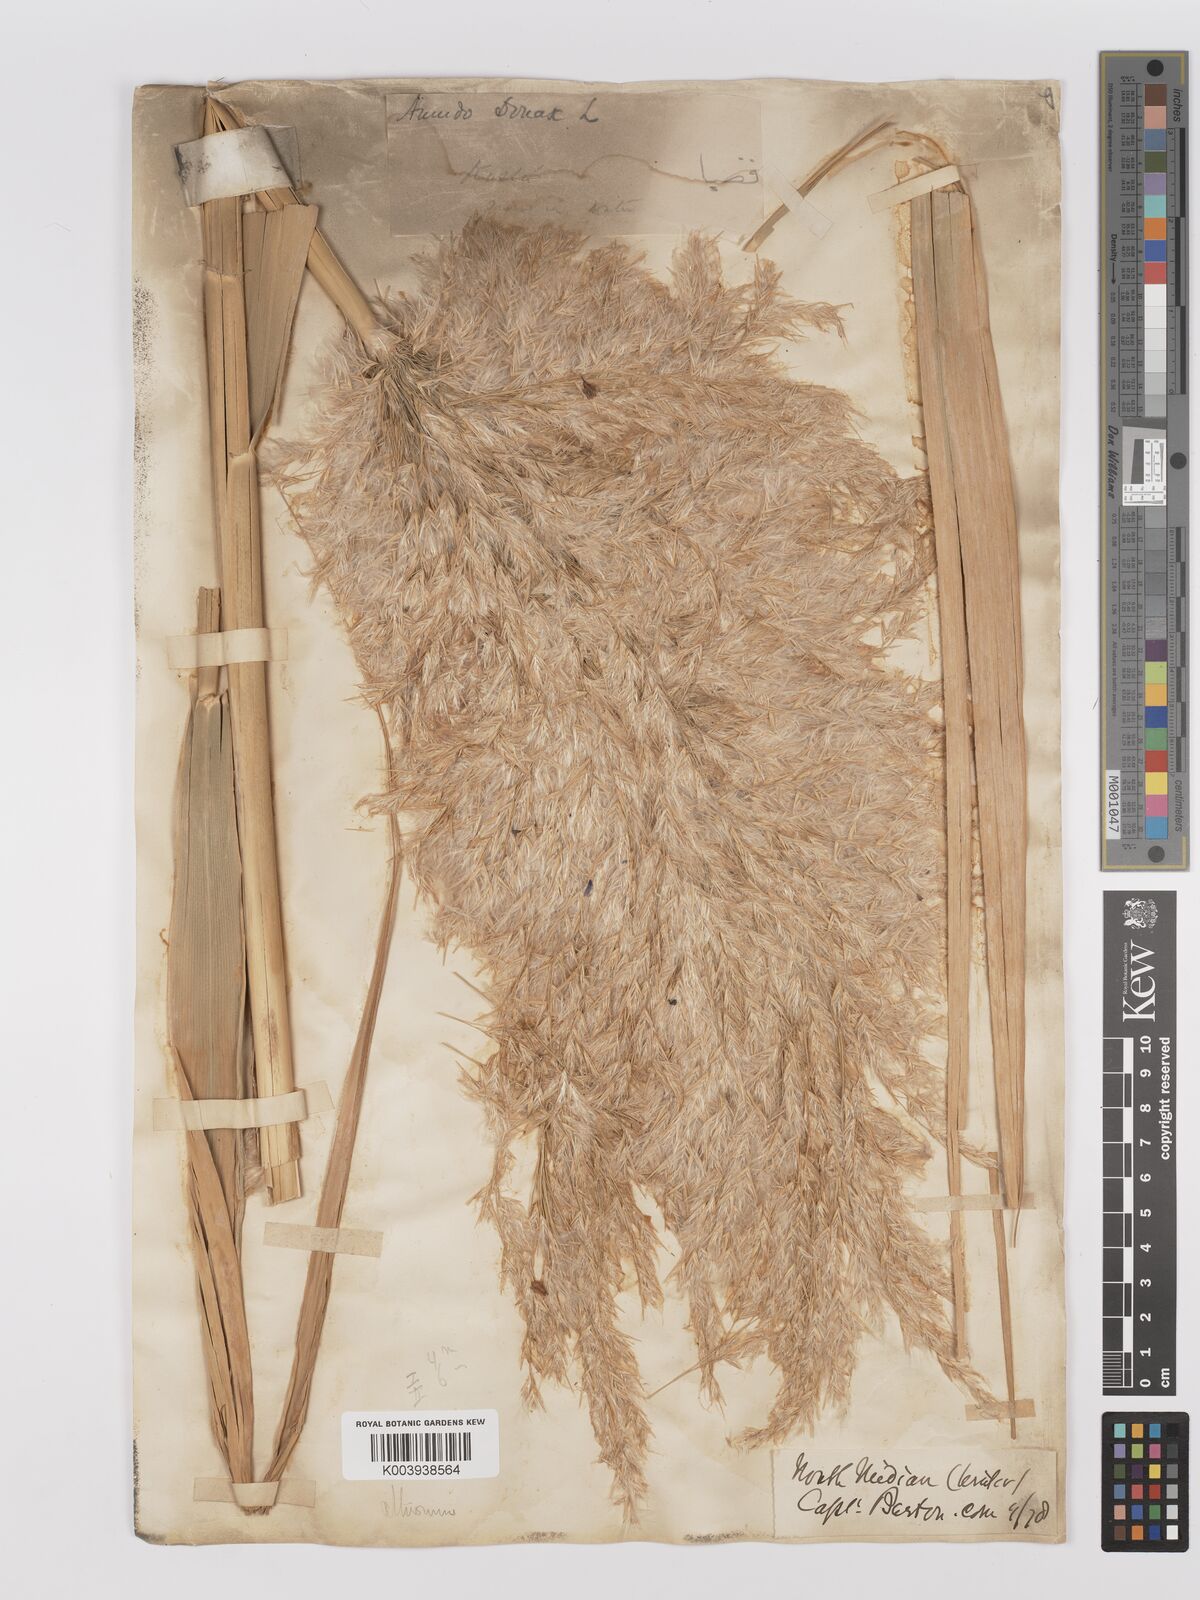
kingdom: Plantae
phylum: Tracheophyta
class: Liliopsida
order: Poales
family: Poaceae
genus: Phragmites
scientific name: Phragmites australis
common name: Common reed
